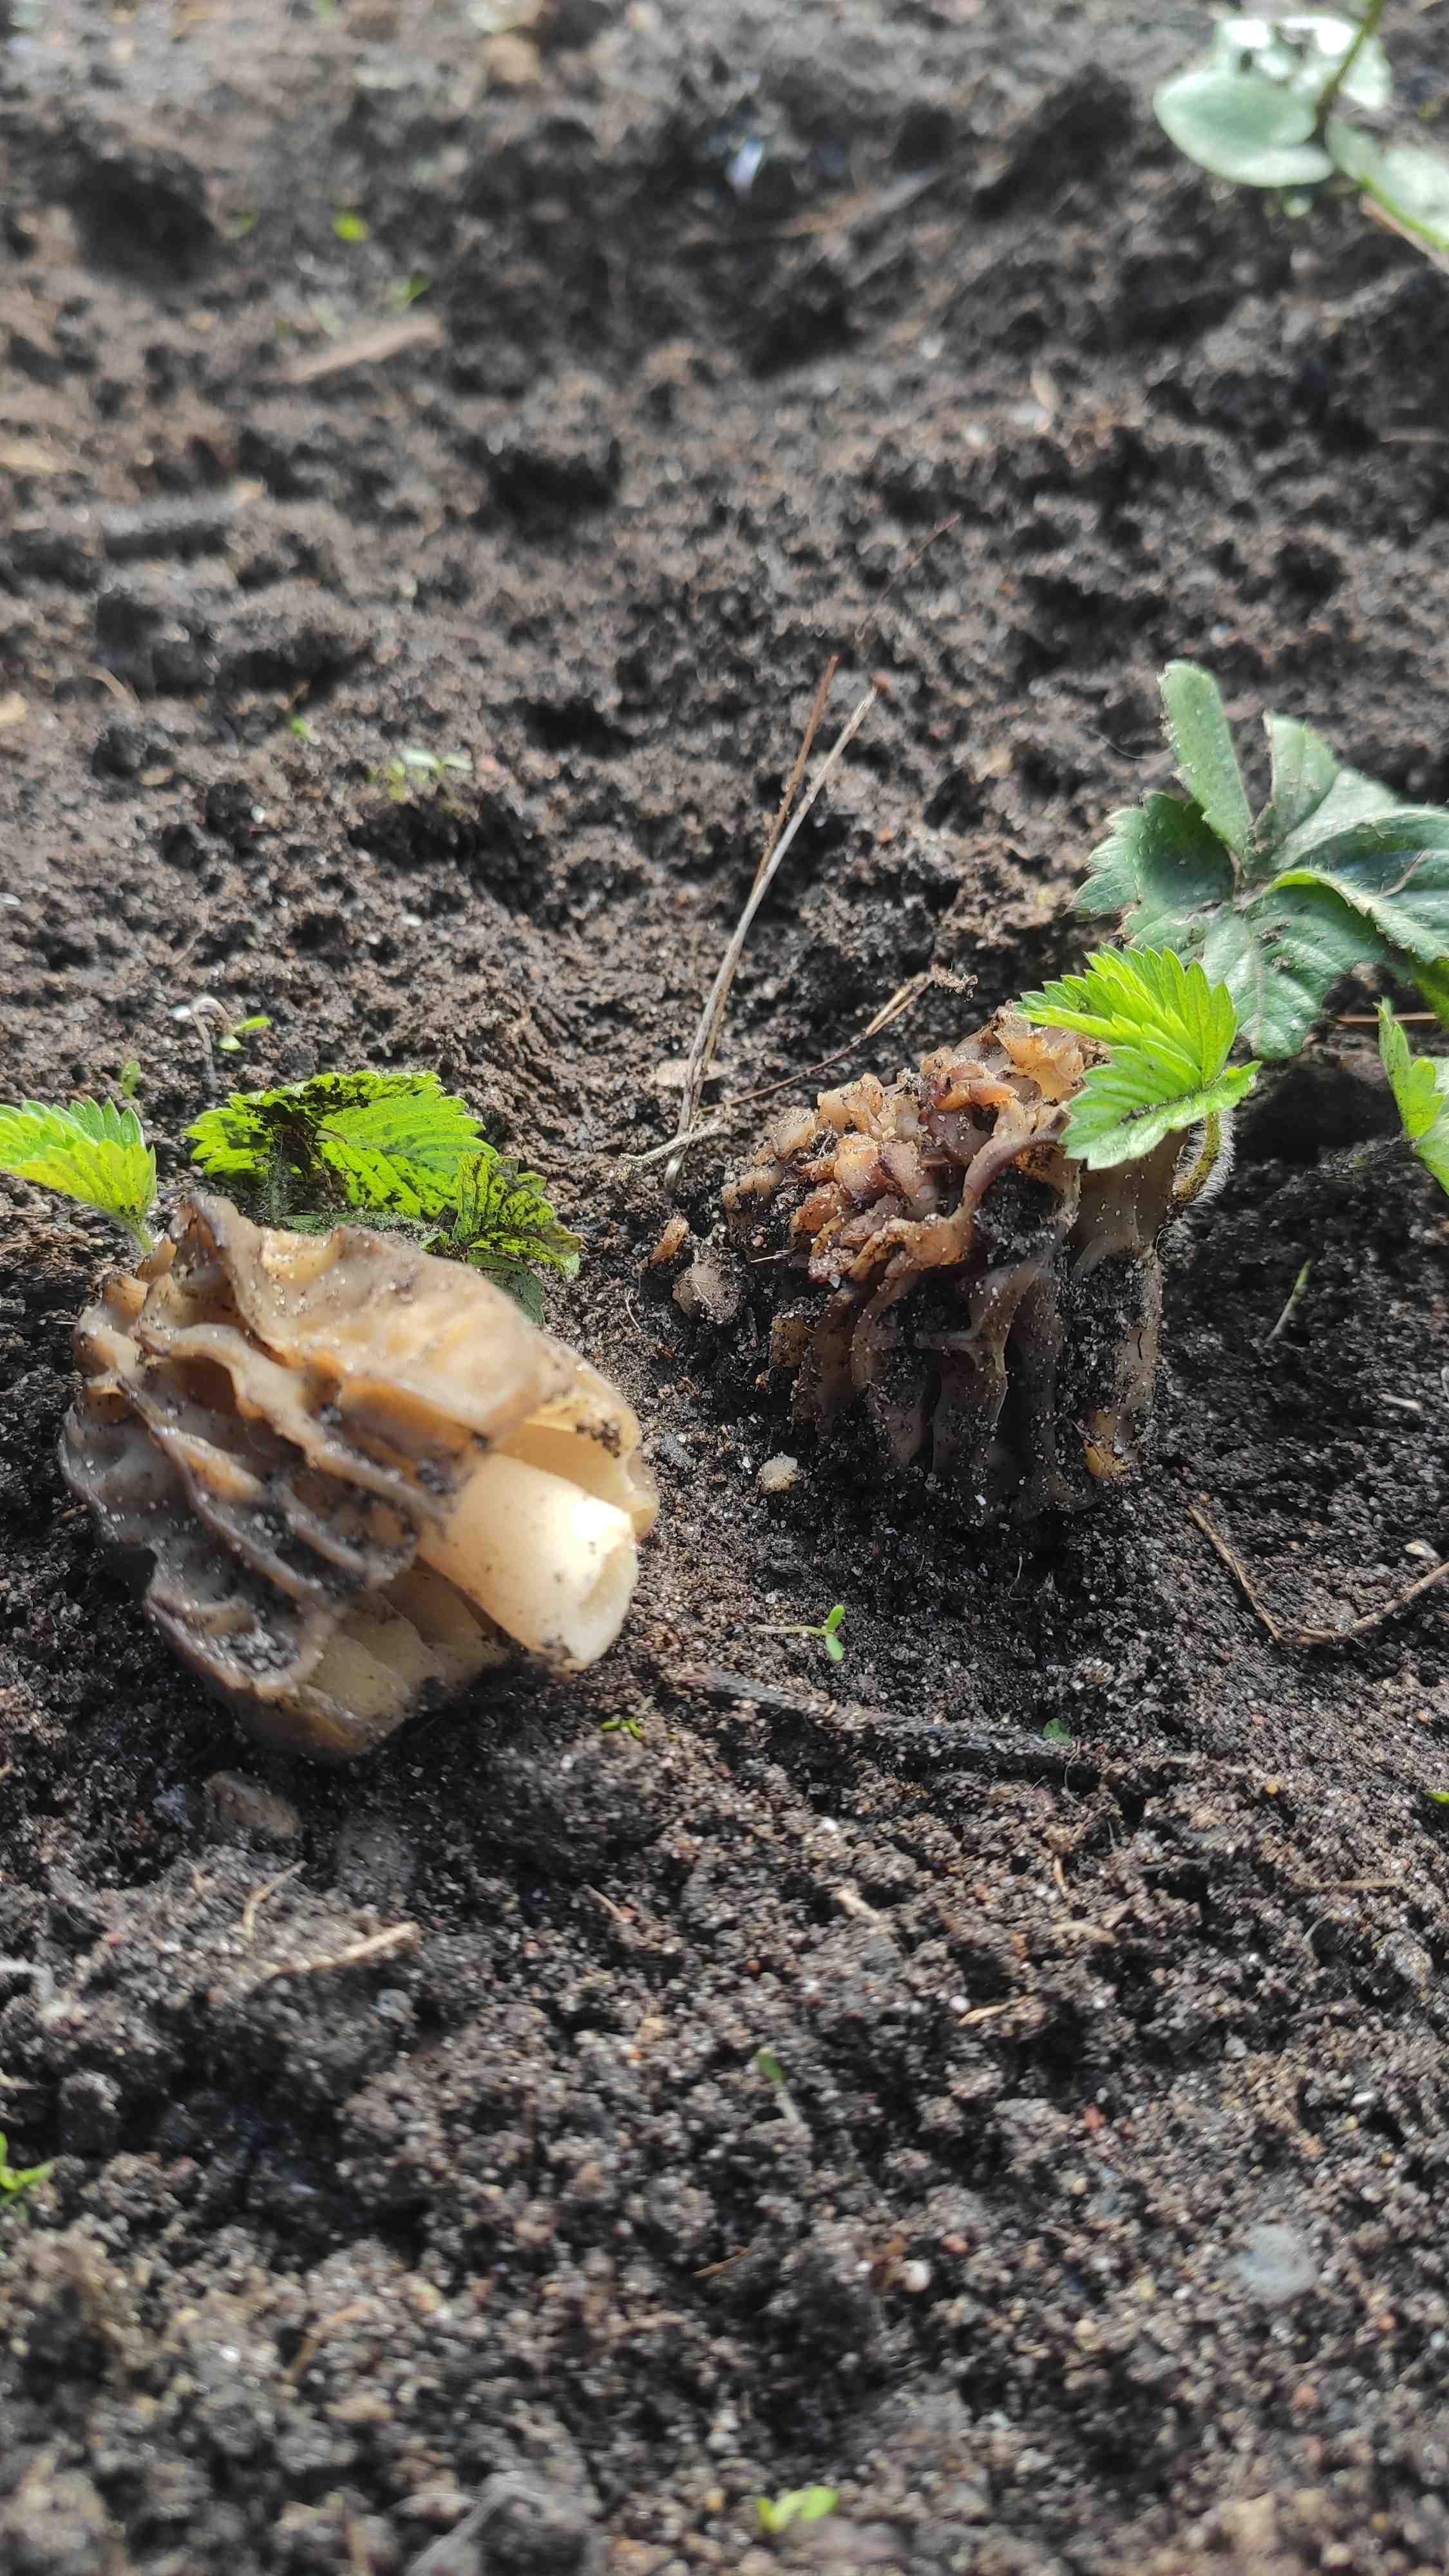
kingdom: Fungi
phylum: Ascomycota
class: Pezizomycetes
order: Pezizales
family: Morchellaceae
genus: Morchella
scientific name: Morchella semilibera
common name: hætte-morkel
